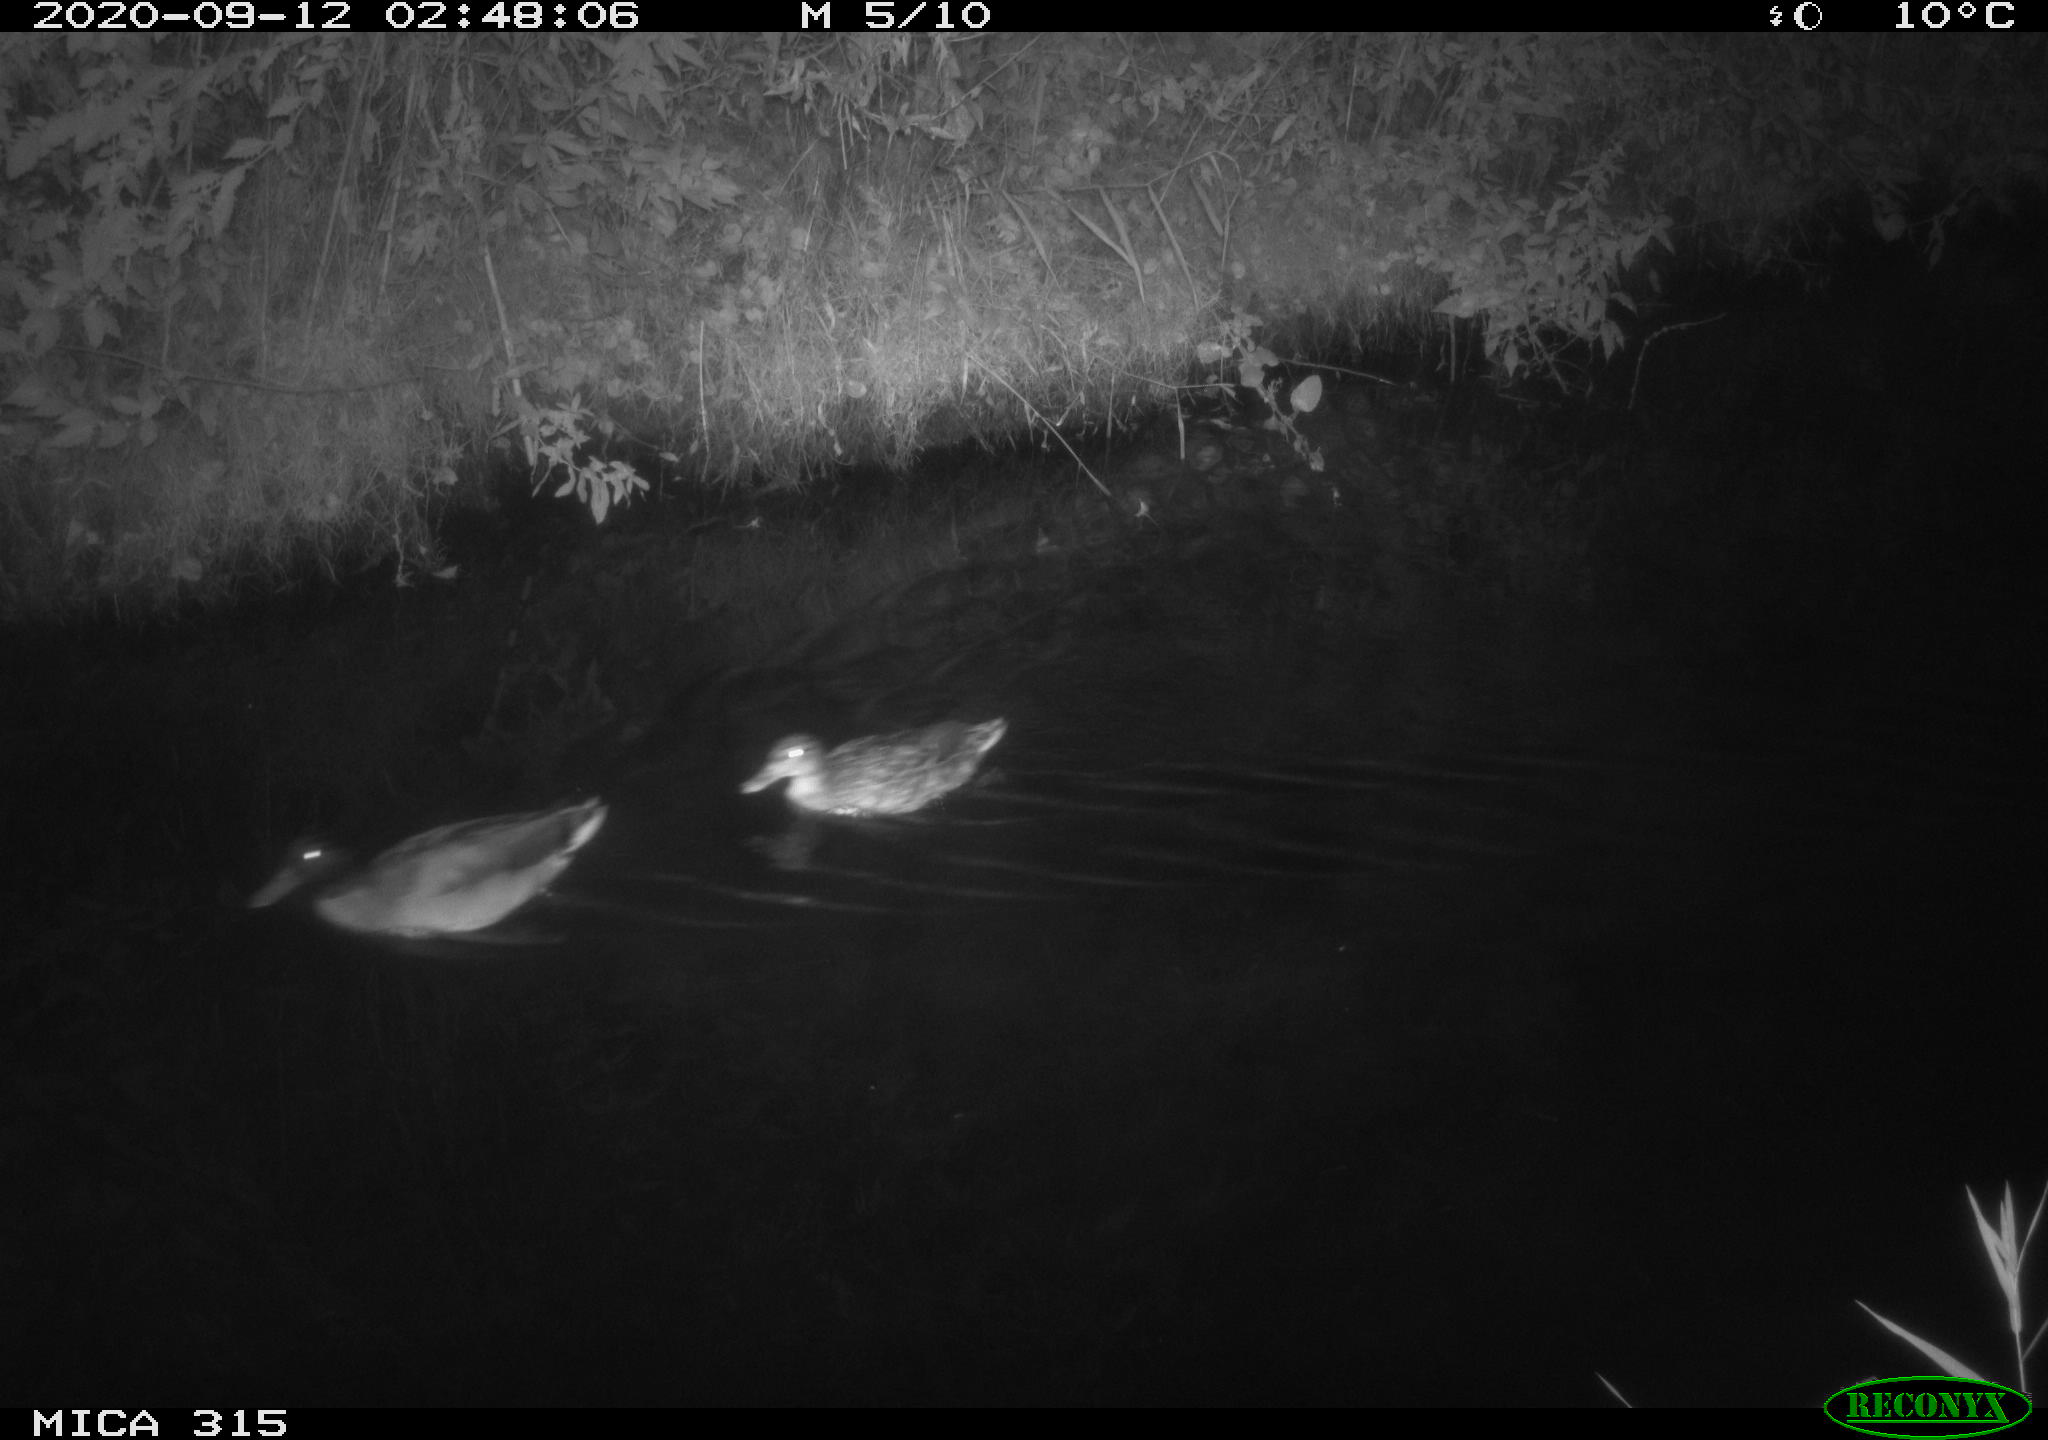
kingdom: Animalia
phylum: Chordata
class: Aves
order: Anseriformes
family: Anatidae
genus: Anas
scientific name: Anas platyrhynchos
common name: Mallard
